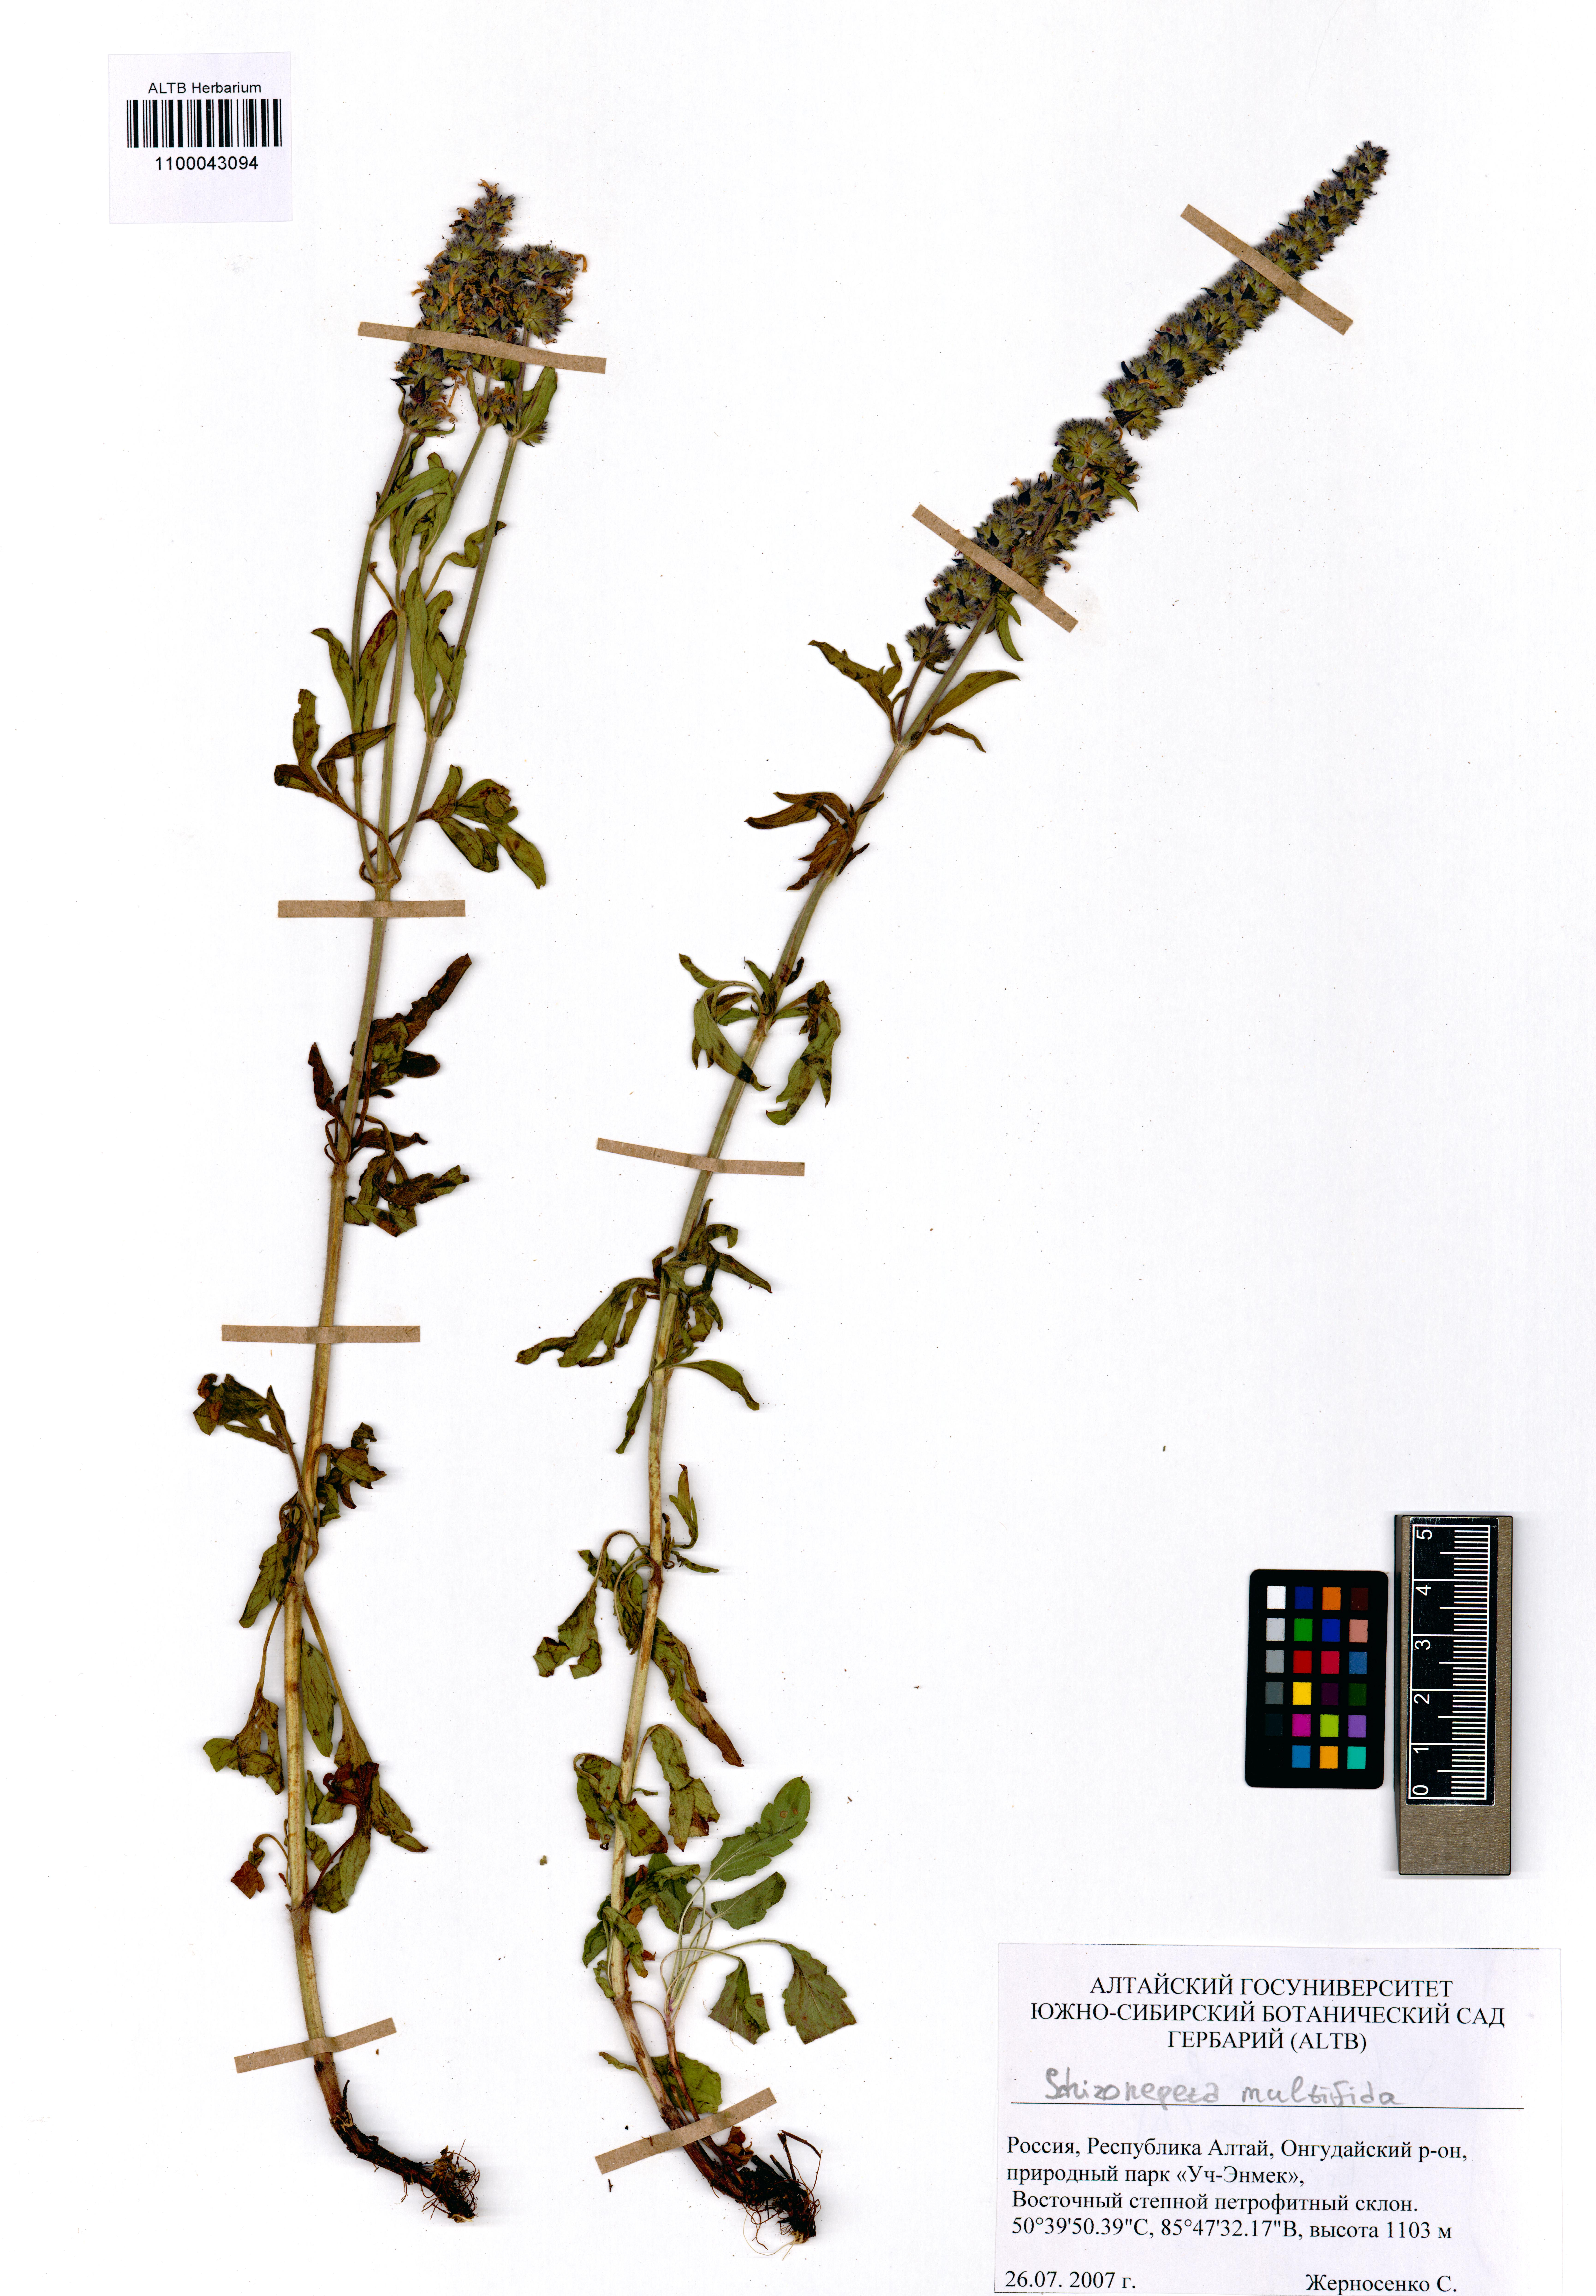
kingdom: Plantae
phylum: Tracheophyta
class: Magnoliopsida
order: Lamiales
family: Lamiaceae
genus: Nepeta
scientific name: Nepeta multifida
